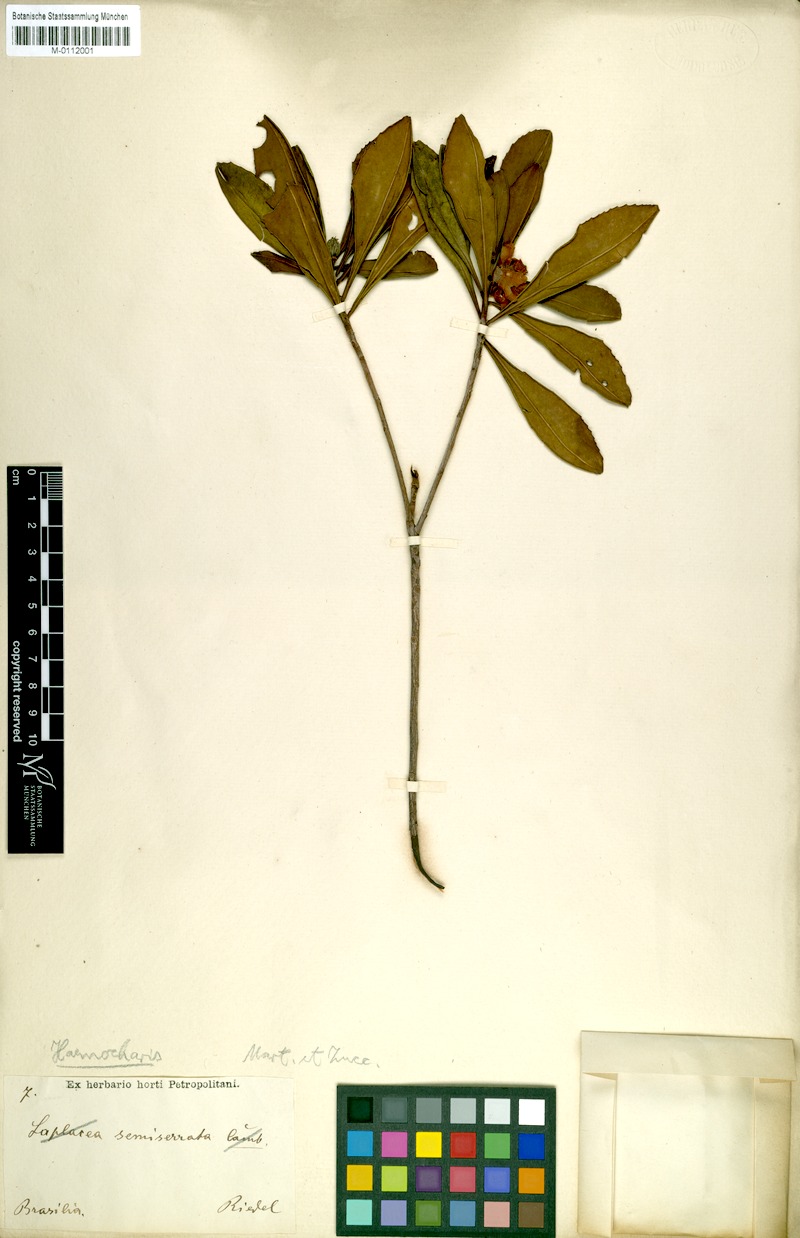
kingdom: Plantae
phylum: Tracheophyta
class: Magnoliopsida
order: Ericales
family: Theaceae
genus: Gordonia
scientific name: Gordonia fruticosa
